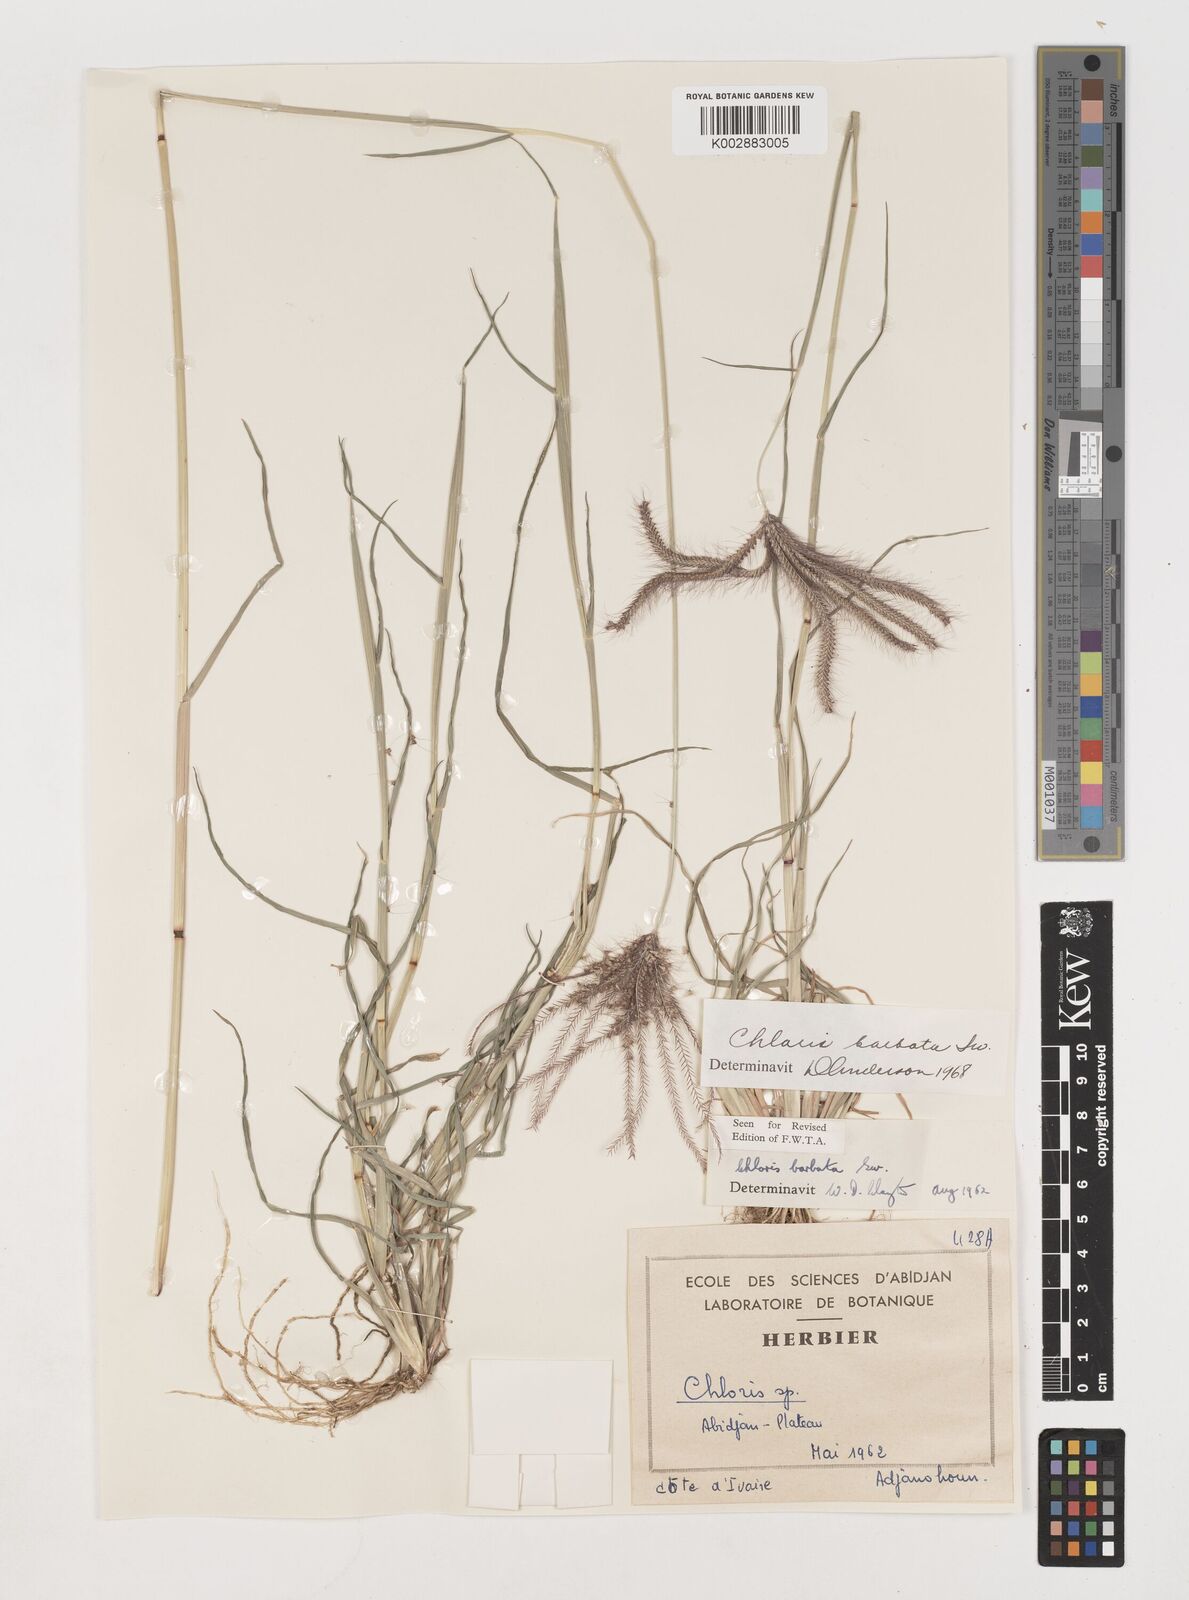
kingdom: Plantae
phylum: Tracheophyta
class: Liliopsida
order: Poales
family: Poaceae
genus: Chloris
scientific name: Chloris barbata
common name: Swollen fingergrass
